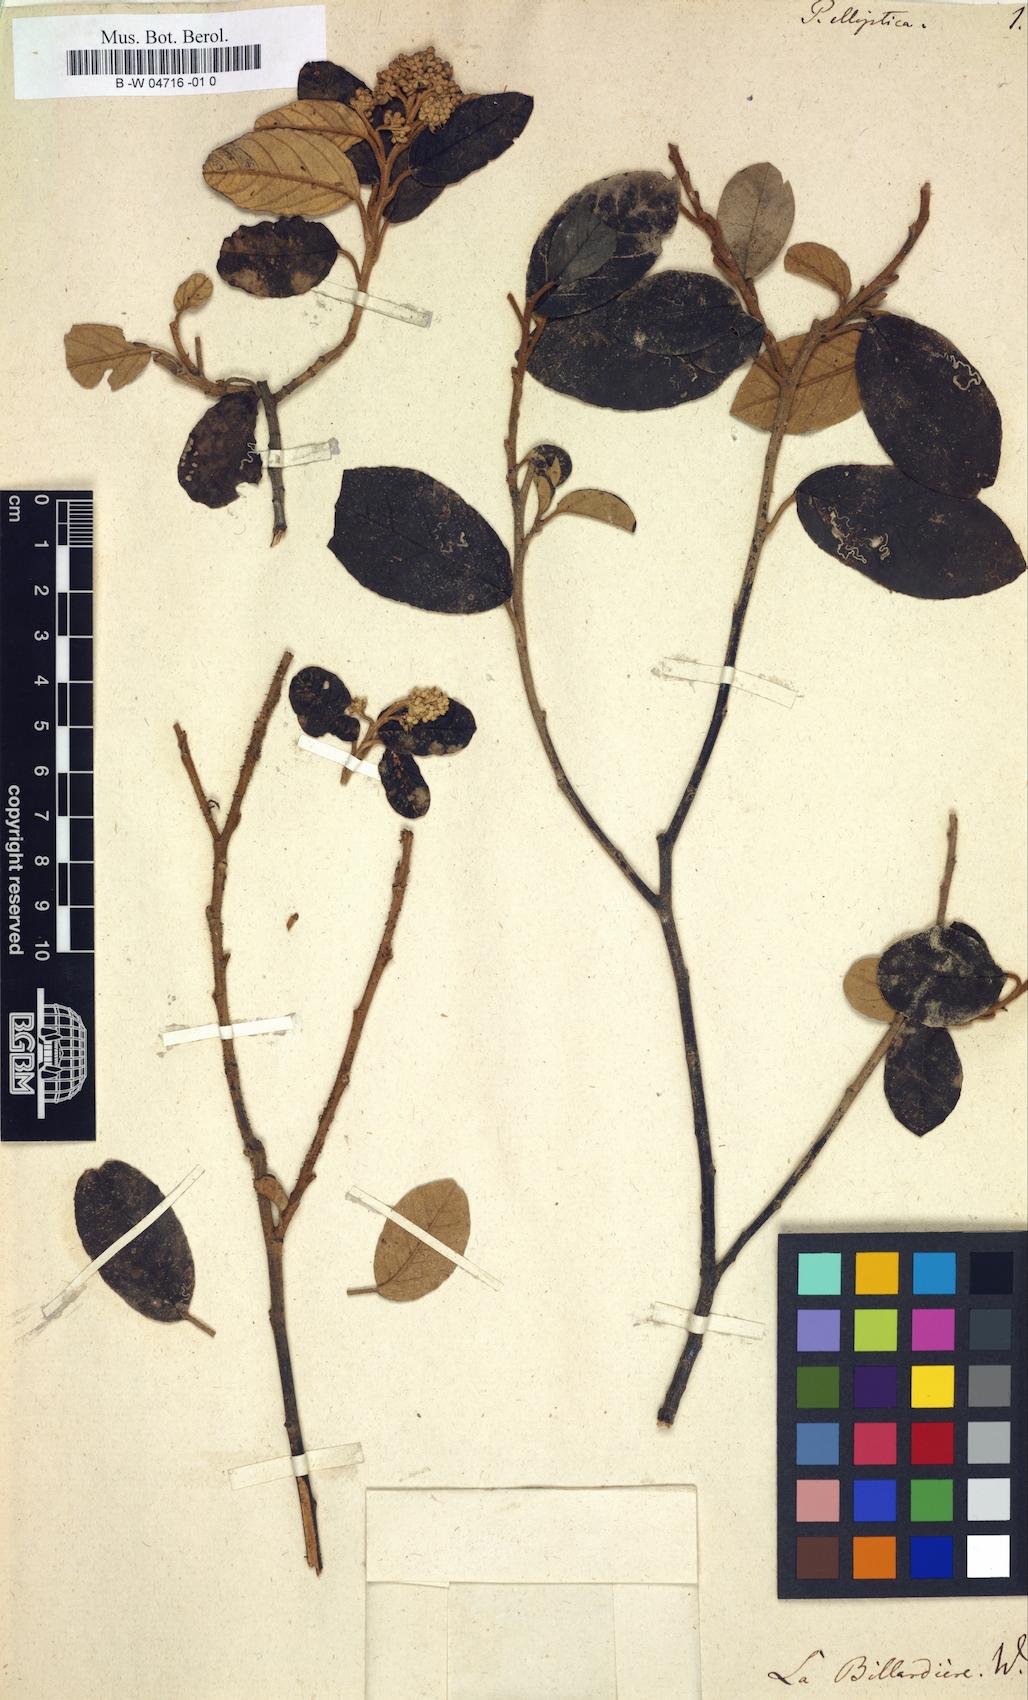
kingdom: Plantae
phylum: Tracheophyta
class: Magnoliopsida
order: Rosales
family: Rhamnaceae
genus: Pomaderris
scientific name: Pomaderris elliptica
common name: Yellow-dogwood
